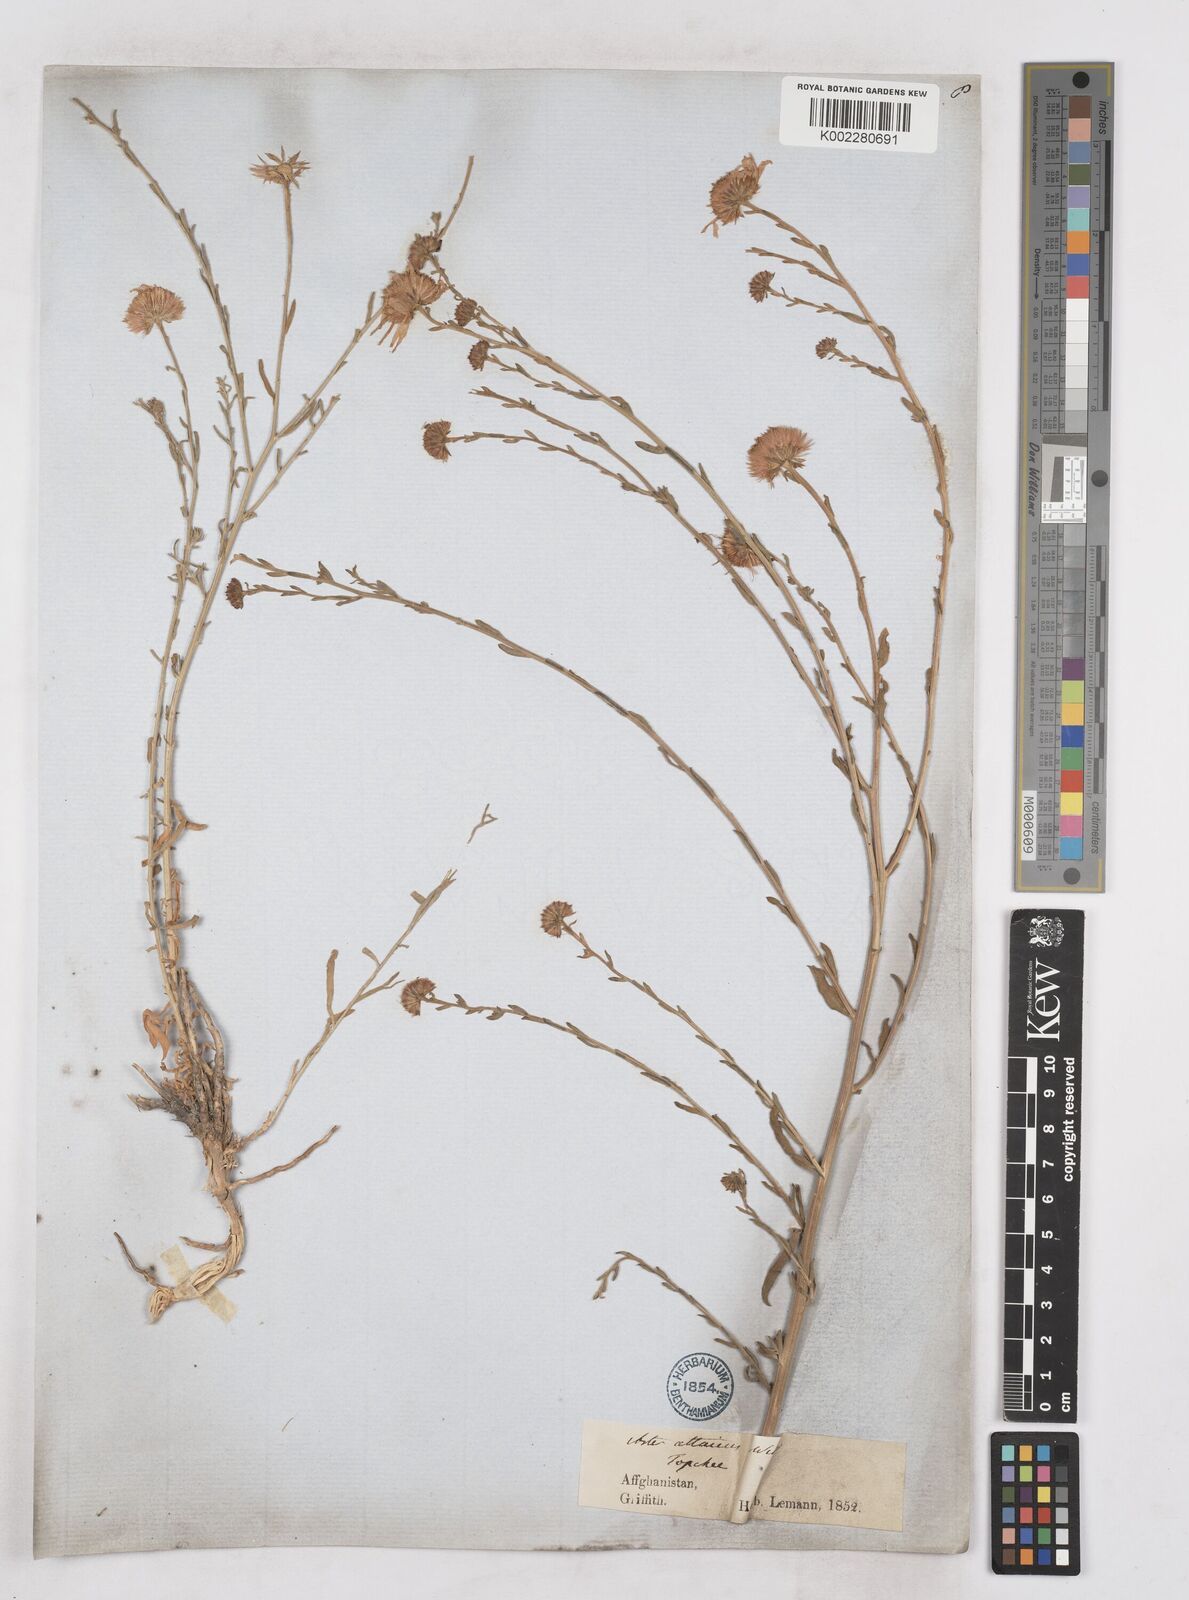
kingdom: Plantae
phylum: Tracheophyta
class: Magnoliopsida
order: Asterales
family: Asteraceae
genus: Heteropappus
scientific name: Heteropappus altaicus
